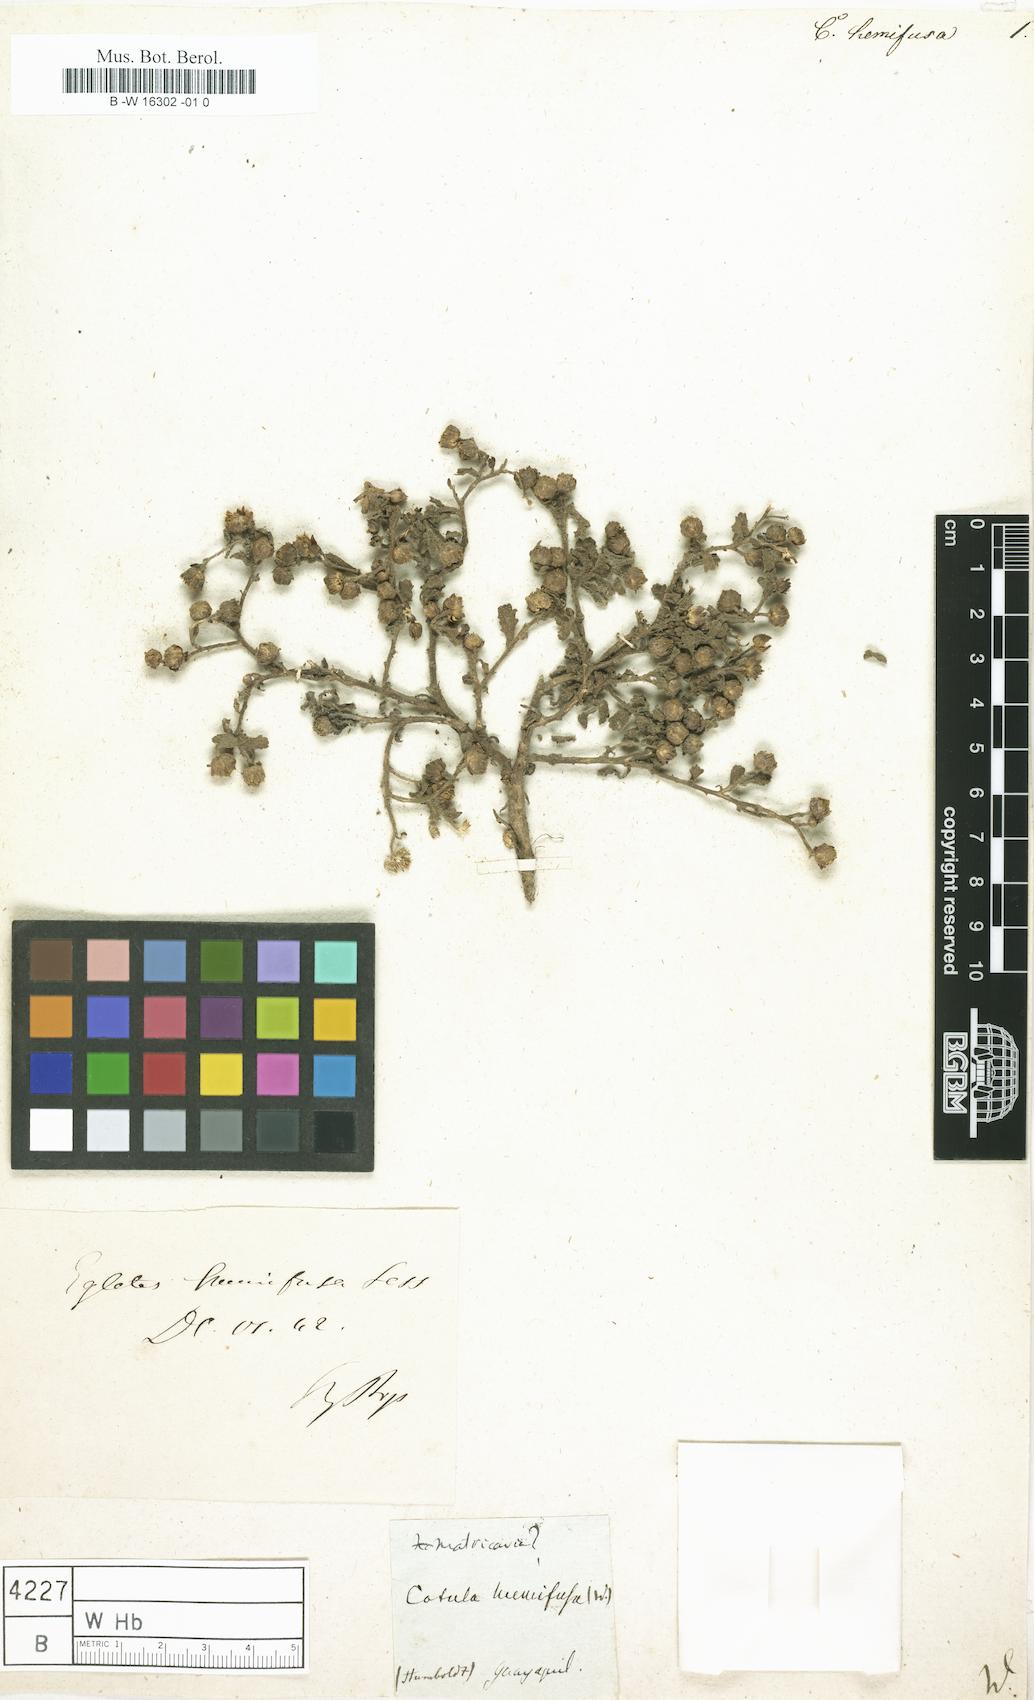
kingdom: Plantae
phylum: Tracheophyta
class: Magnoliopsida
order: Asterales
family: Asteraceae
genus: Egletes
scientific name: Egletes humifusa
